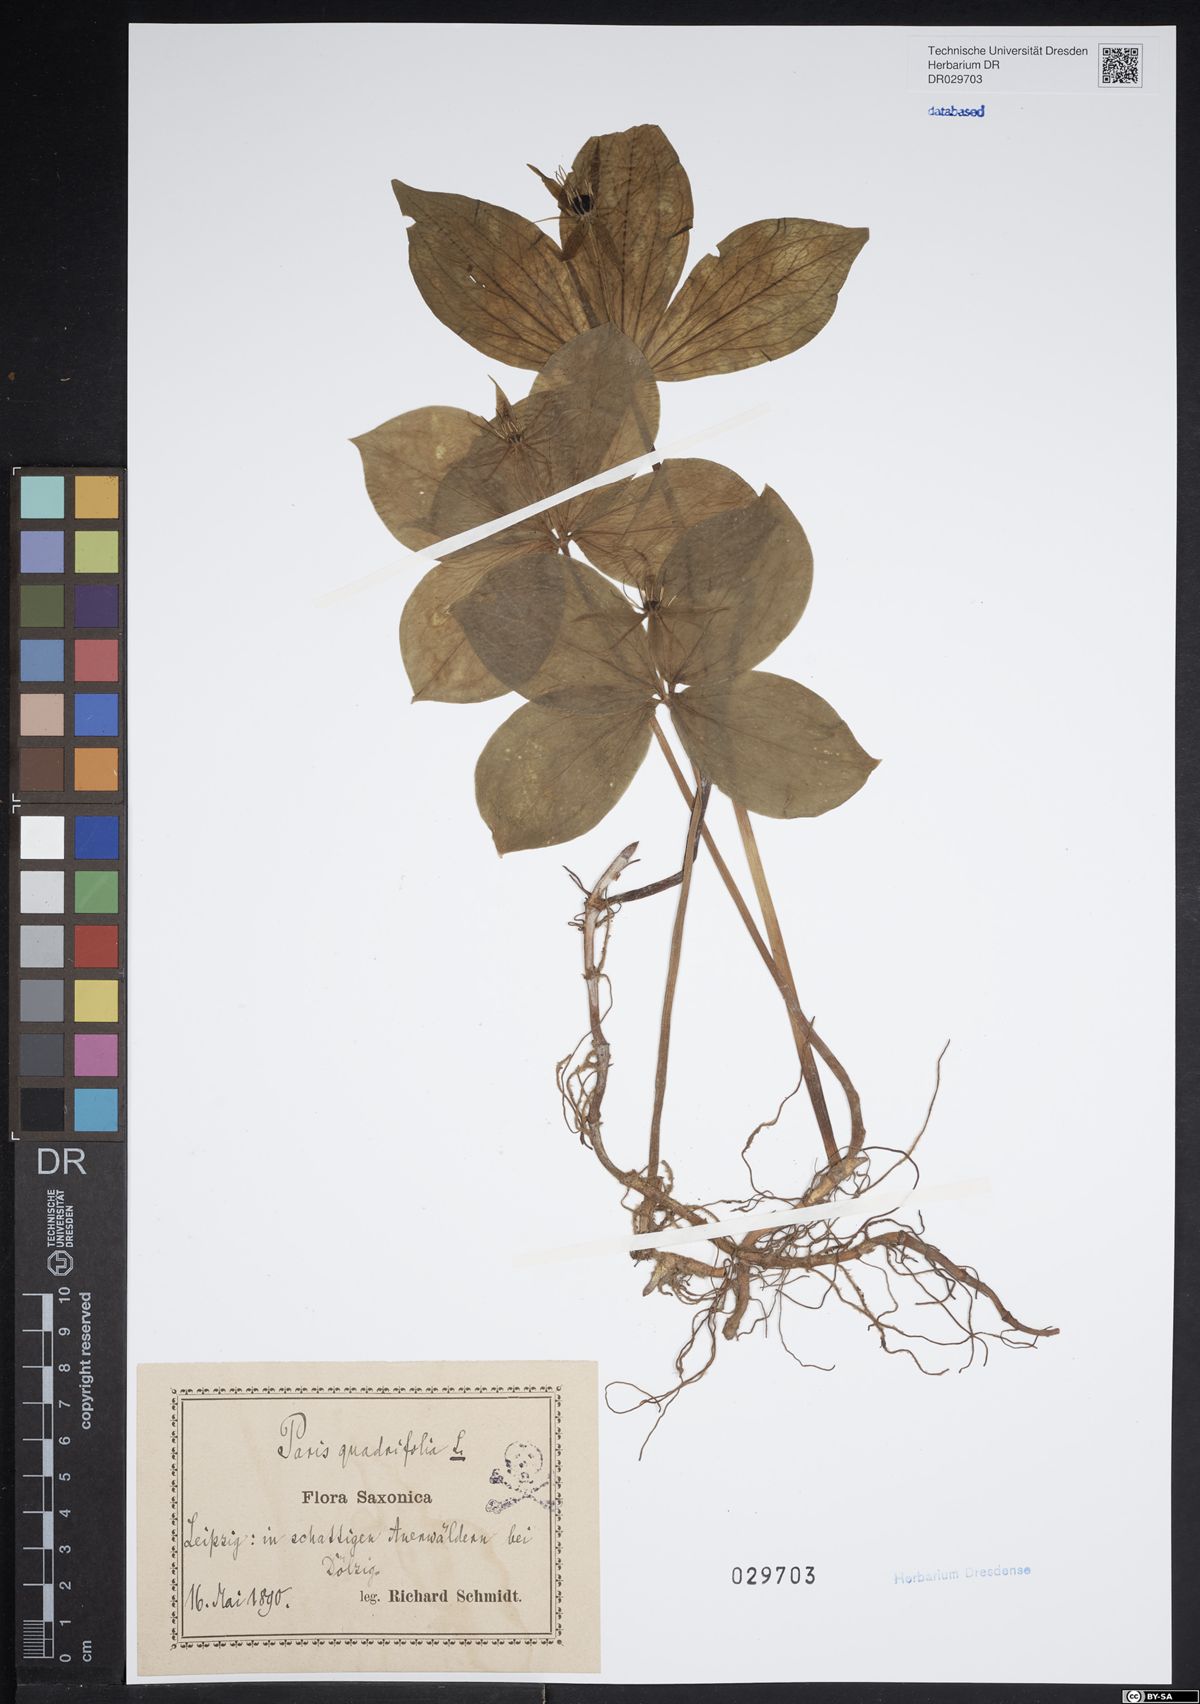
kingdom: Plantae
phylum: Tracheophyta
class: Liliopsida
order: Liliales
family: Melanthiaceae
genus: Paris
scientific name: Paris quadrifolia
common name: Herb-paris
